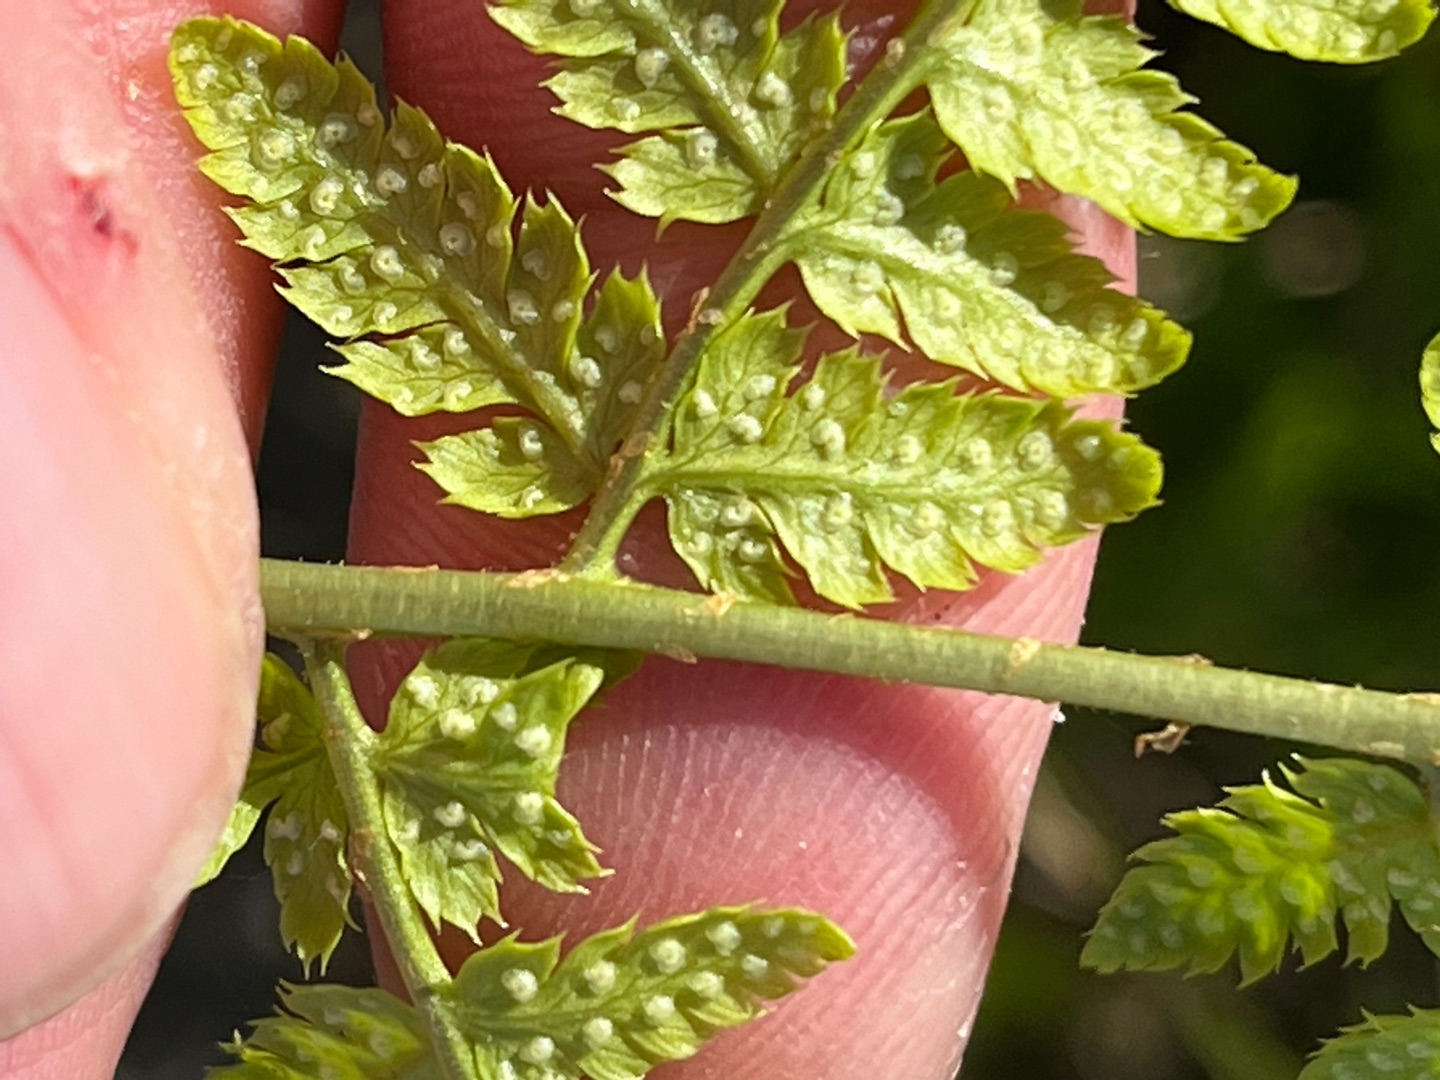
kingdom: Plantae
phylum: Tracheophyta
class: Polypodiopsida
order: Polypodiales
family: Dryopteridaceae
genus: Dryopteris
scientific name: Dryopteris carthusiana
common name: Smalbladet mangeløv
